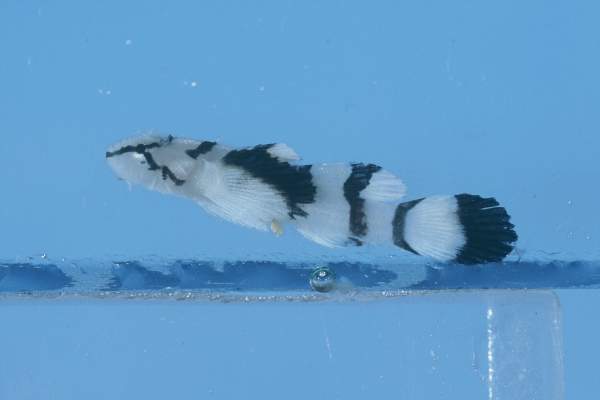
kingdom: Animalia
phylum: Chordata
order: Perciformes
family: Gobiidae
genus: Callogobius
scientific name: Callogobius plumatus
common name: Feather goby
